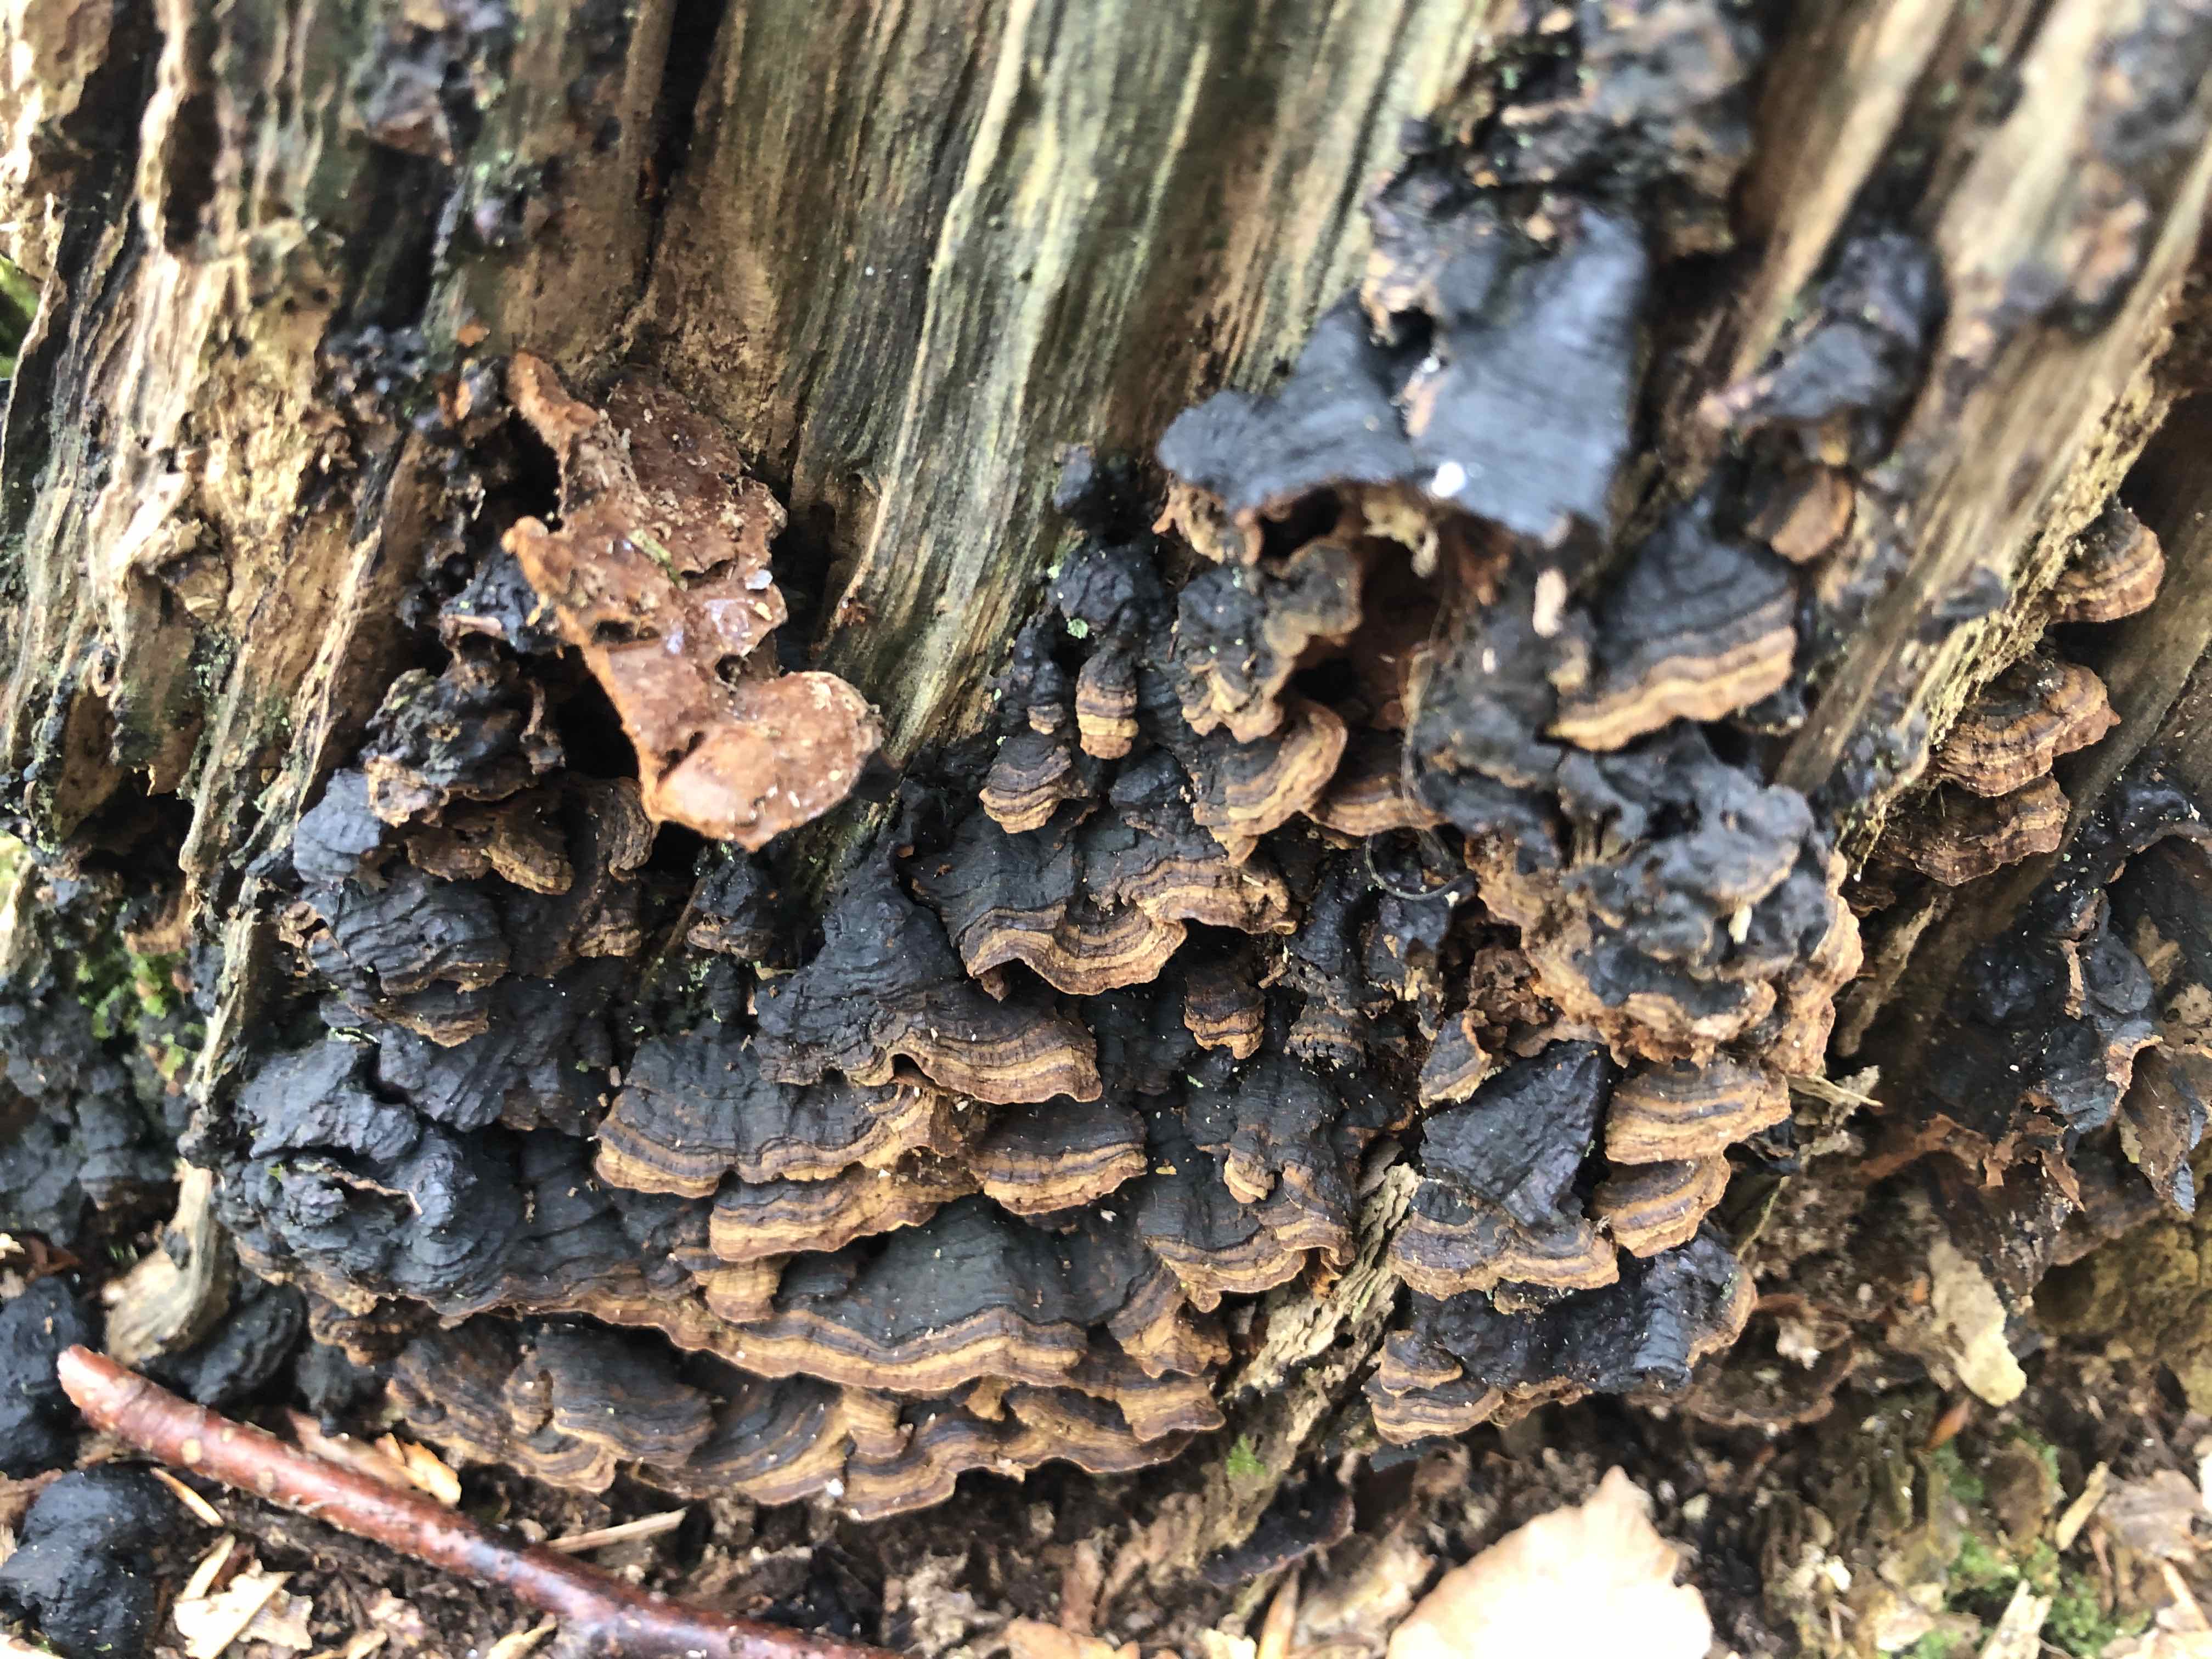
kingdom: Fungi
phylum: Basidiomycota
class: Agaricomycetes
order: Hymenochaetales
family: Hymenochaetaceae
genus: Hymenochaete
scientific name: Hymenochaete rubiginosa
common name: stiv ruslædersvamp
